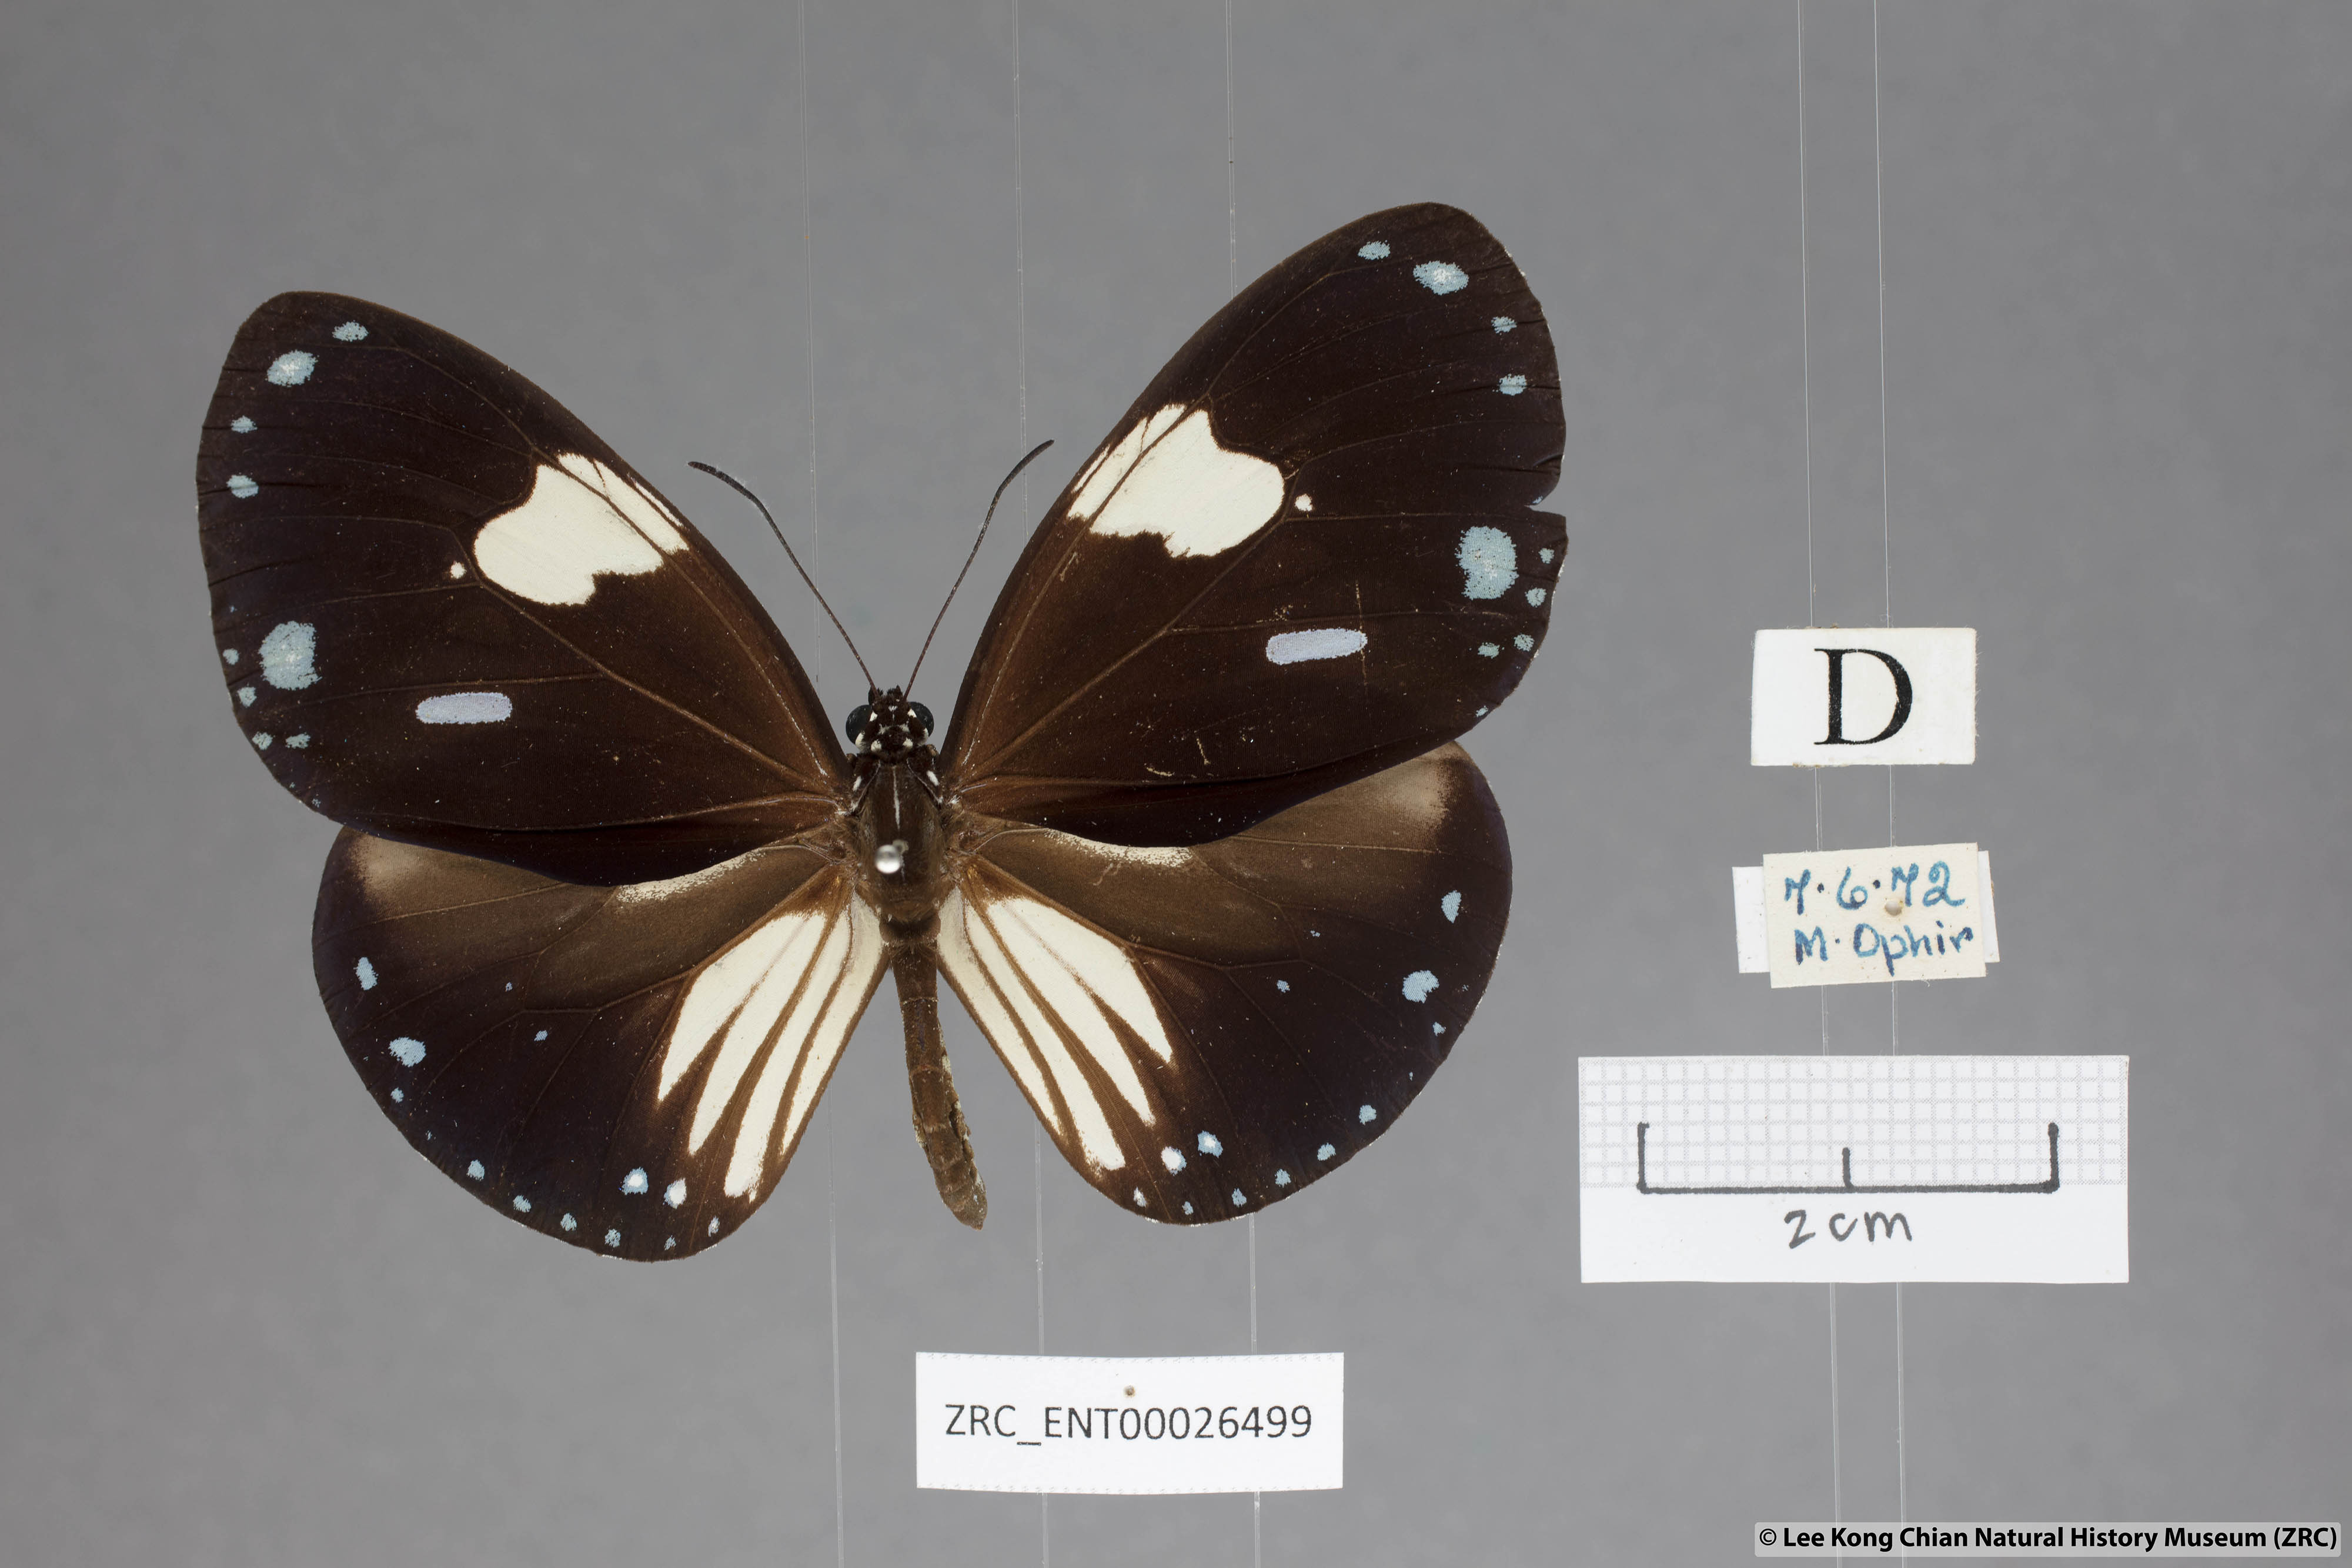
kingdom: Animalia
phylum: Arthropoda
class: Insecta
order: Lepidoptera
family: Nymphalidae
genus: Euploea
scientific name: Euploea radamanthus
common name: Magpie crow butterfly
